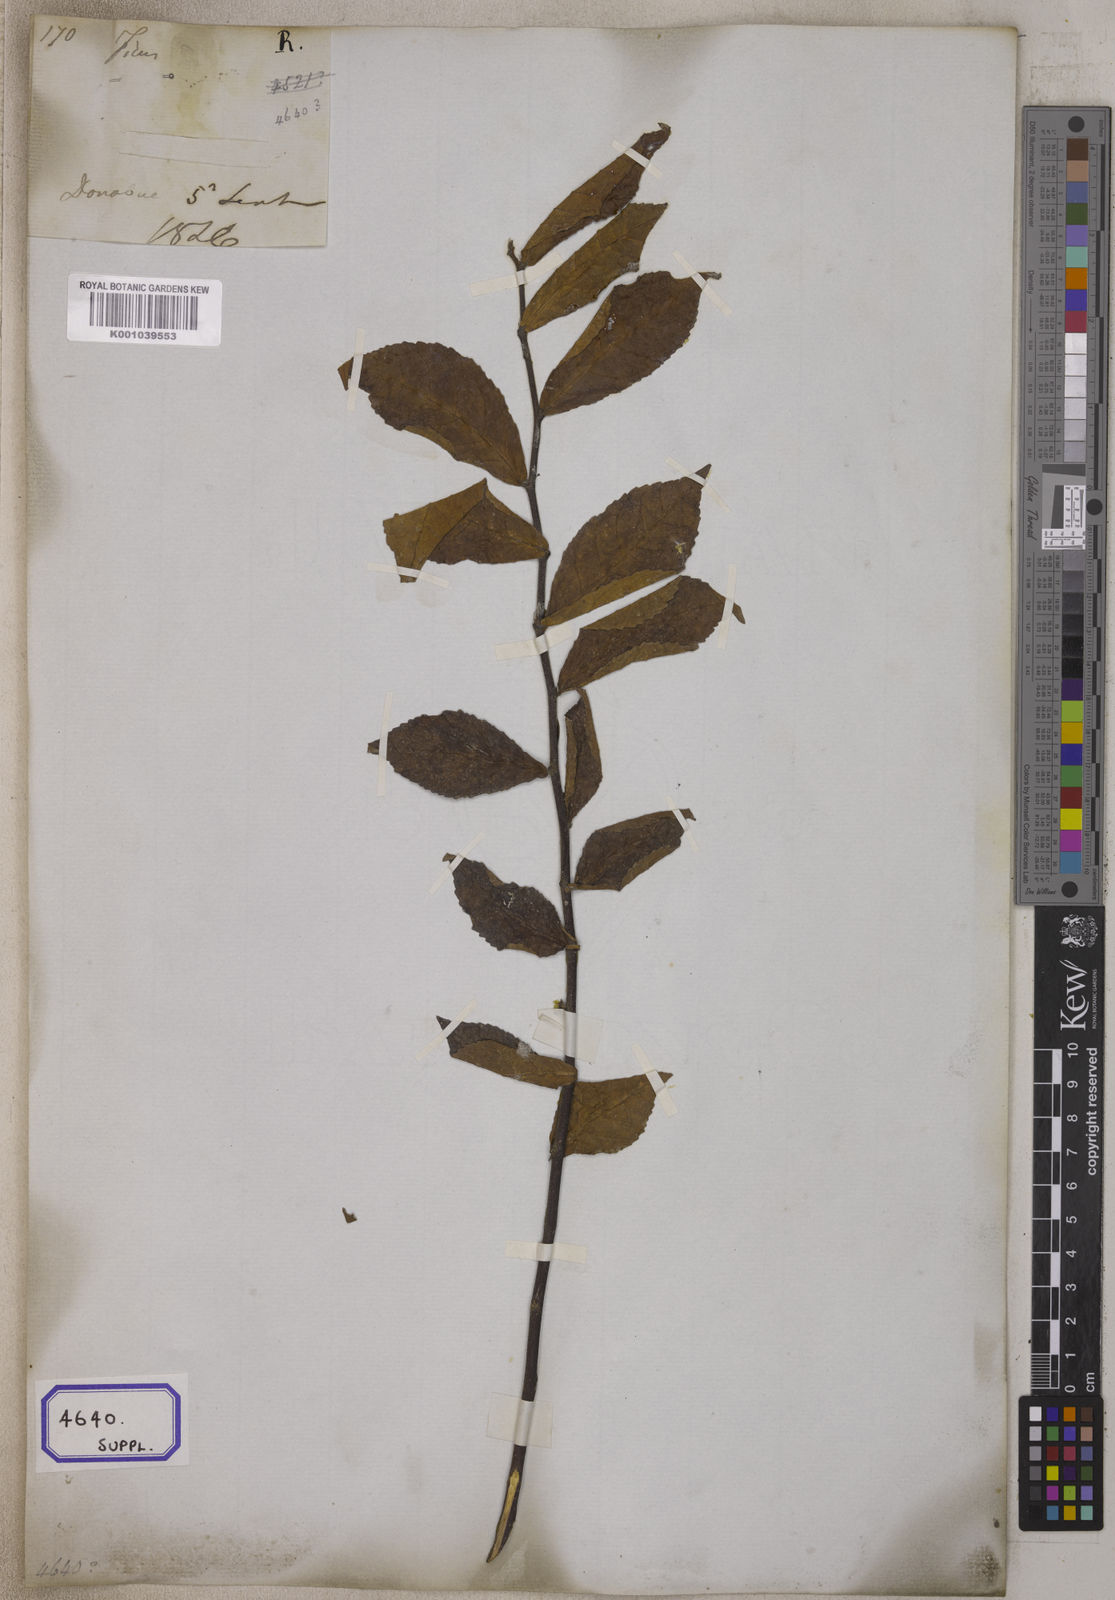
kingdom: Plantae
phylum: Tracheophyta
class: Magnoliopsida
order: Rosales
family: Moraceae
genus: Streblus
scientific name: Streblus asper
